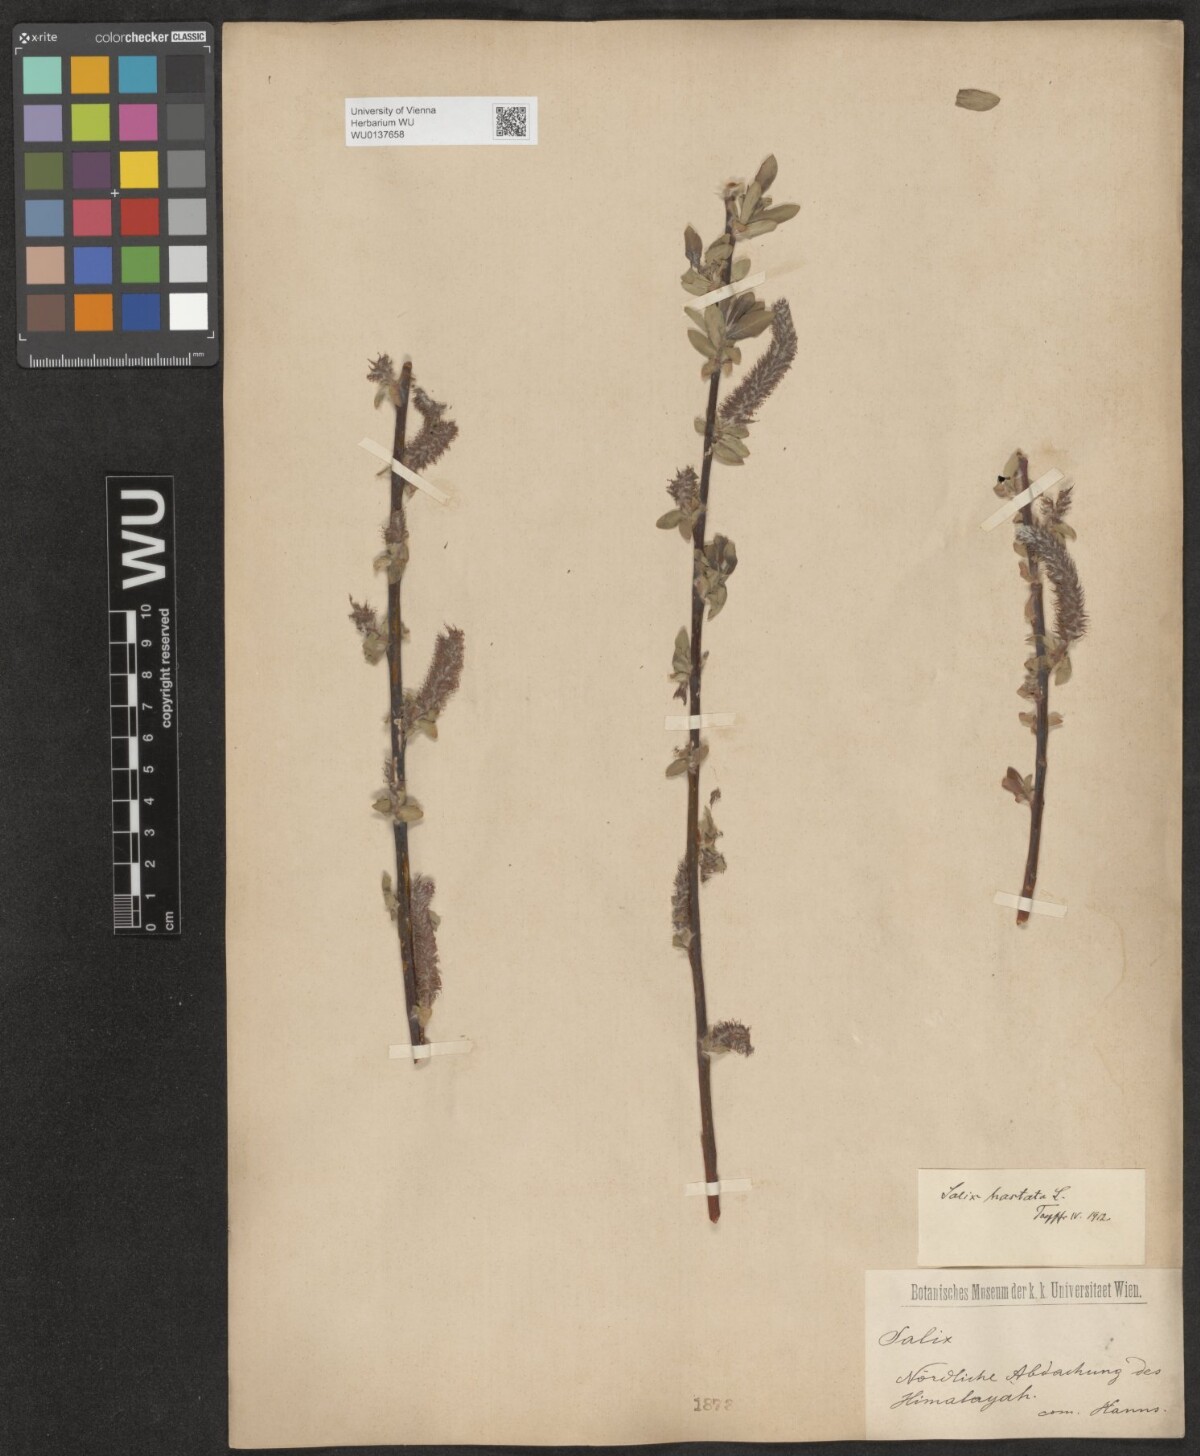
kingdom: Plantae
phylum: Tracheophyta
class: Magnoliopsida
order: Malpighiales
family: Salicaceae
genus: Salix
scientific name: Salix hastata
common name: Halberd willow
